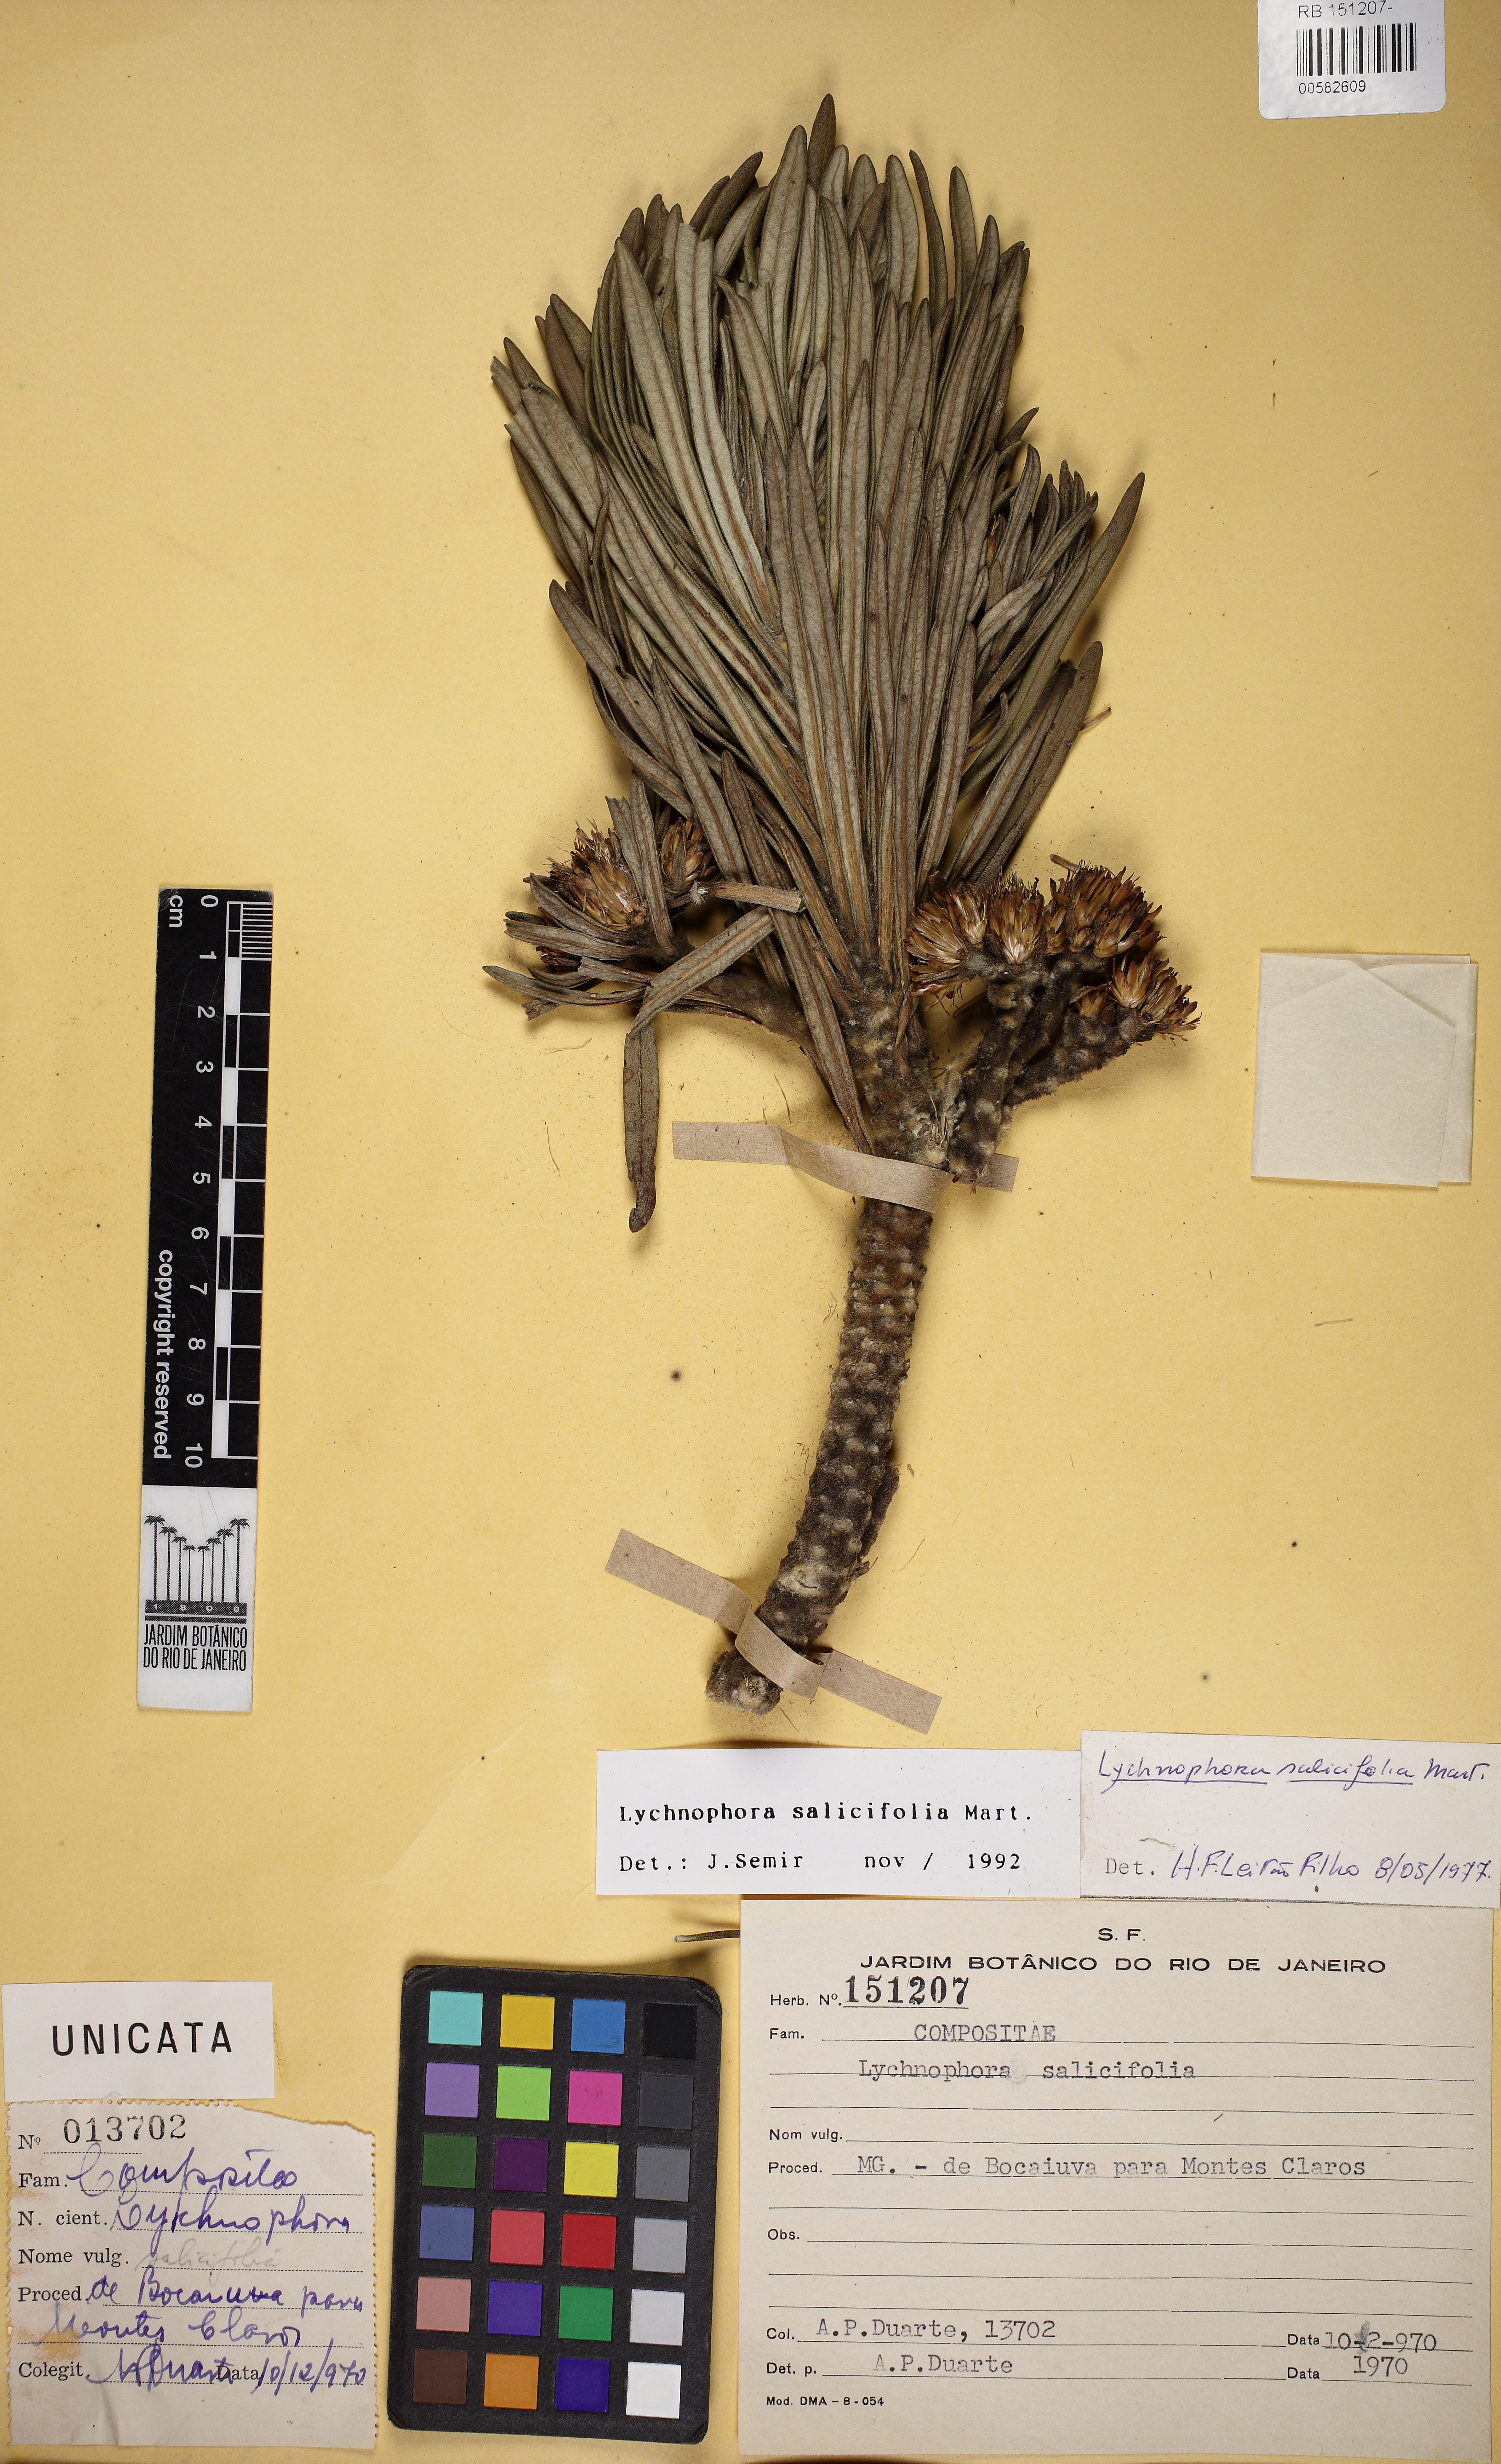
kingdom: Plantae
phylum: Tracheophyta
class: Magnoliopsida
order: Asterales
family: Asteraceae
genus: Lychnophora
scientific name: Lychnophora salicifolia
